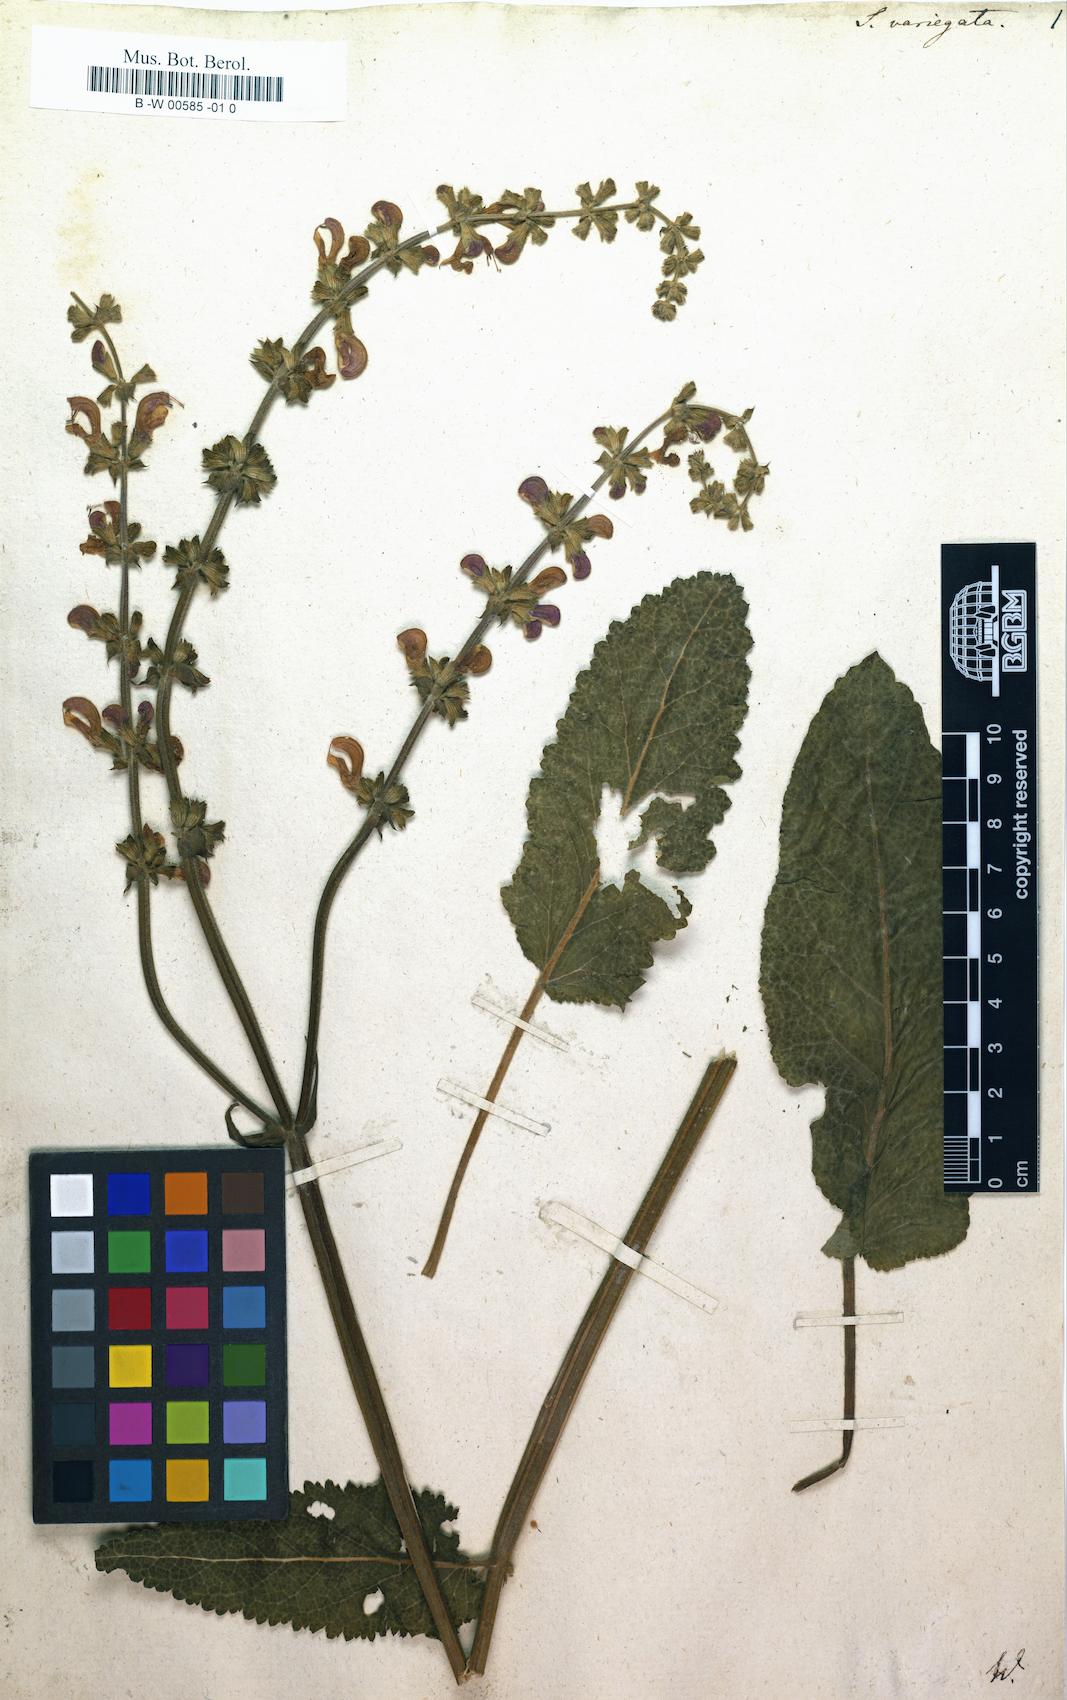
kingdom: Plantae
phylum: Tracheophyta
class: Magnoliopsida
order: Lamiales
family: Lamiaceae
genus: Salvia
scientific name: Salvia pratensis
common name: Meadow sage
